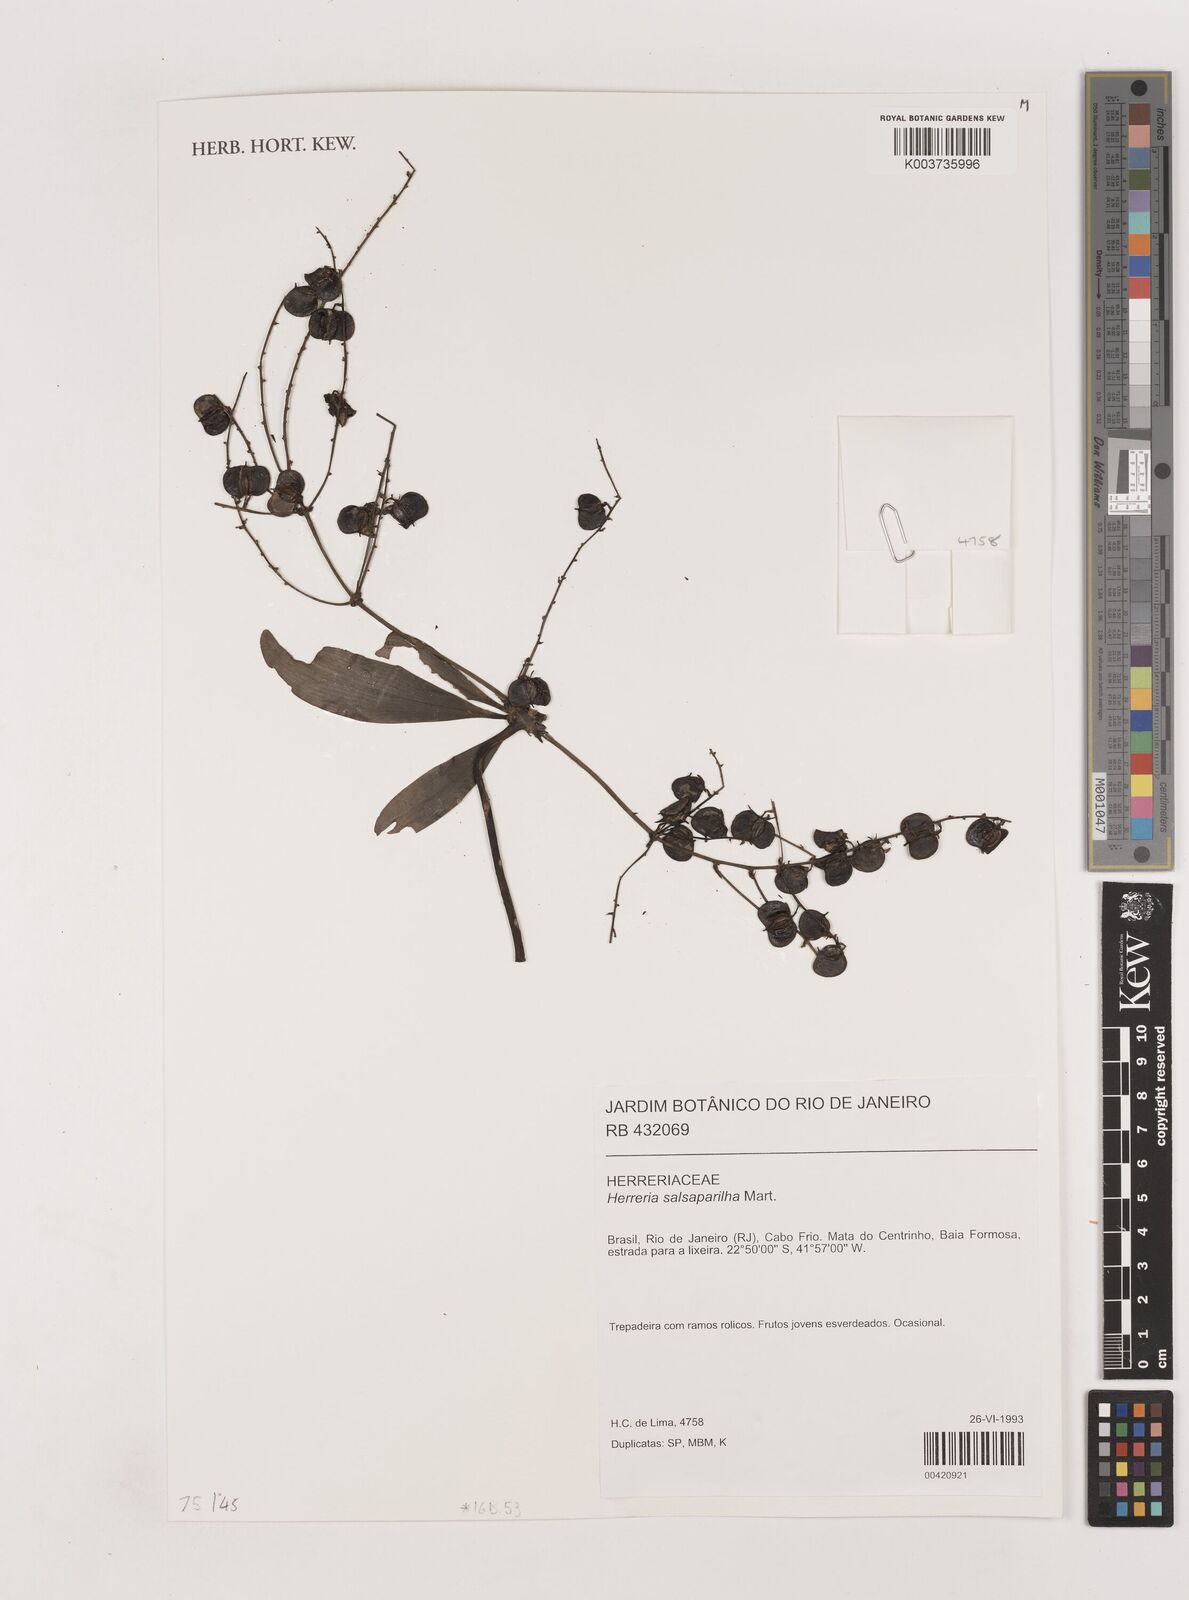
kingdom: Plantae
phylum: Tracheophyta
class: Liliopsida
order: Asparagales
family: Asparagaceae
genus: Herreria
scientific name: Herreria salsaparilha
